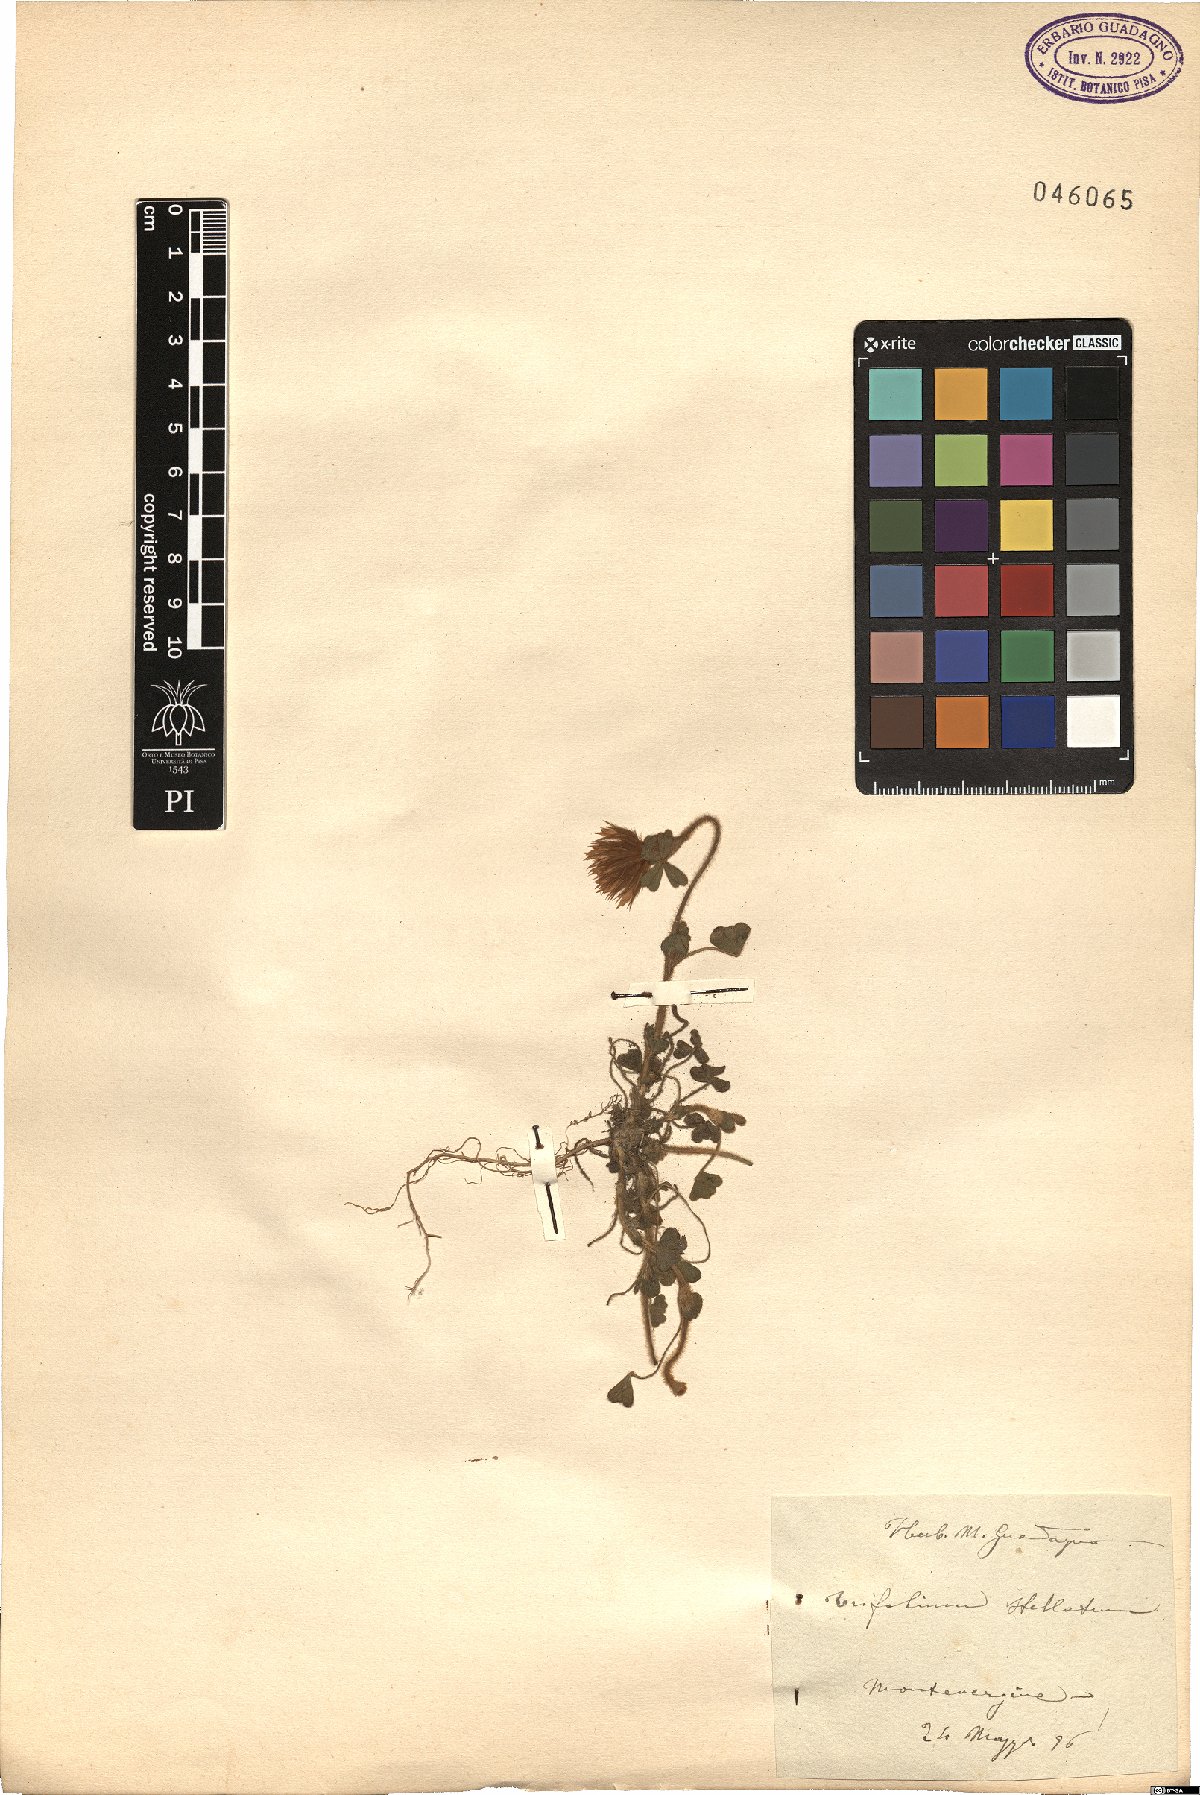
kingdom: Plantae
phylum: Tracheophyta
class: Magnoliopsida
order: Fabales
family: Fabaceae
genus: Trifolium
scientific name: Trifolium stellatum
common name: Starry clover
